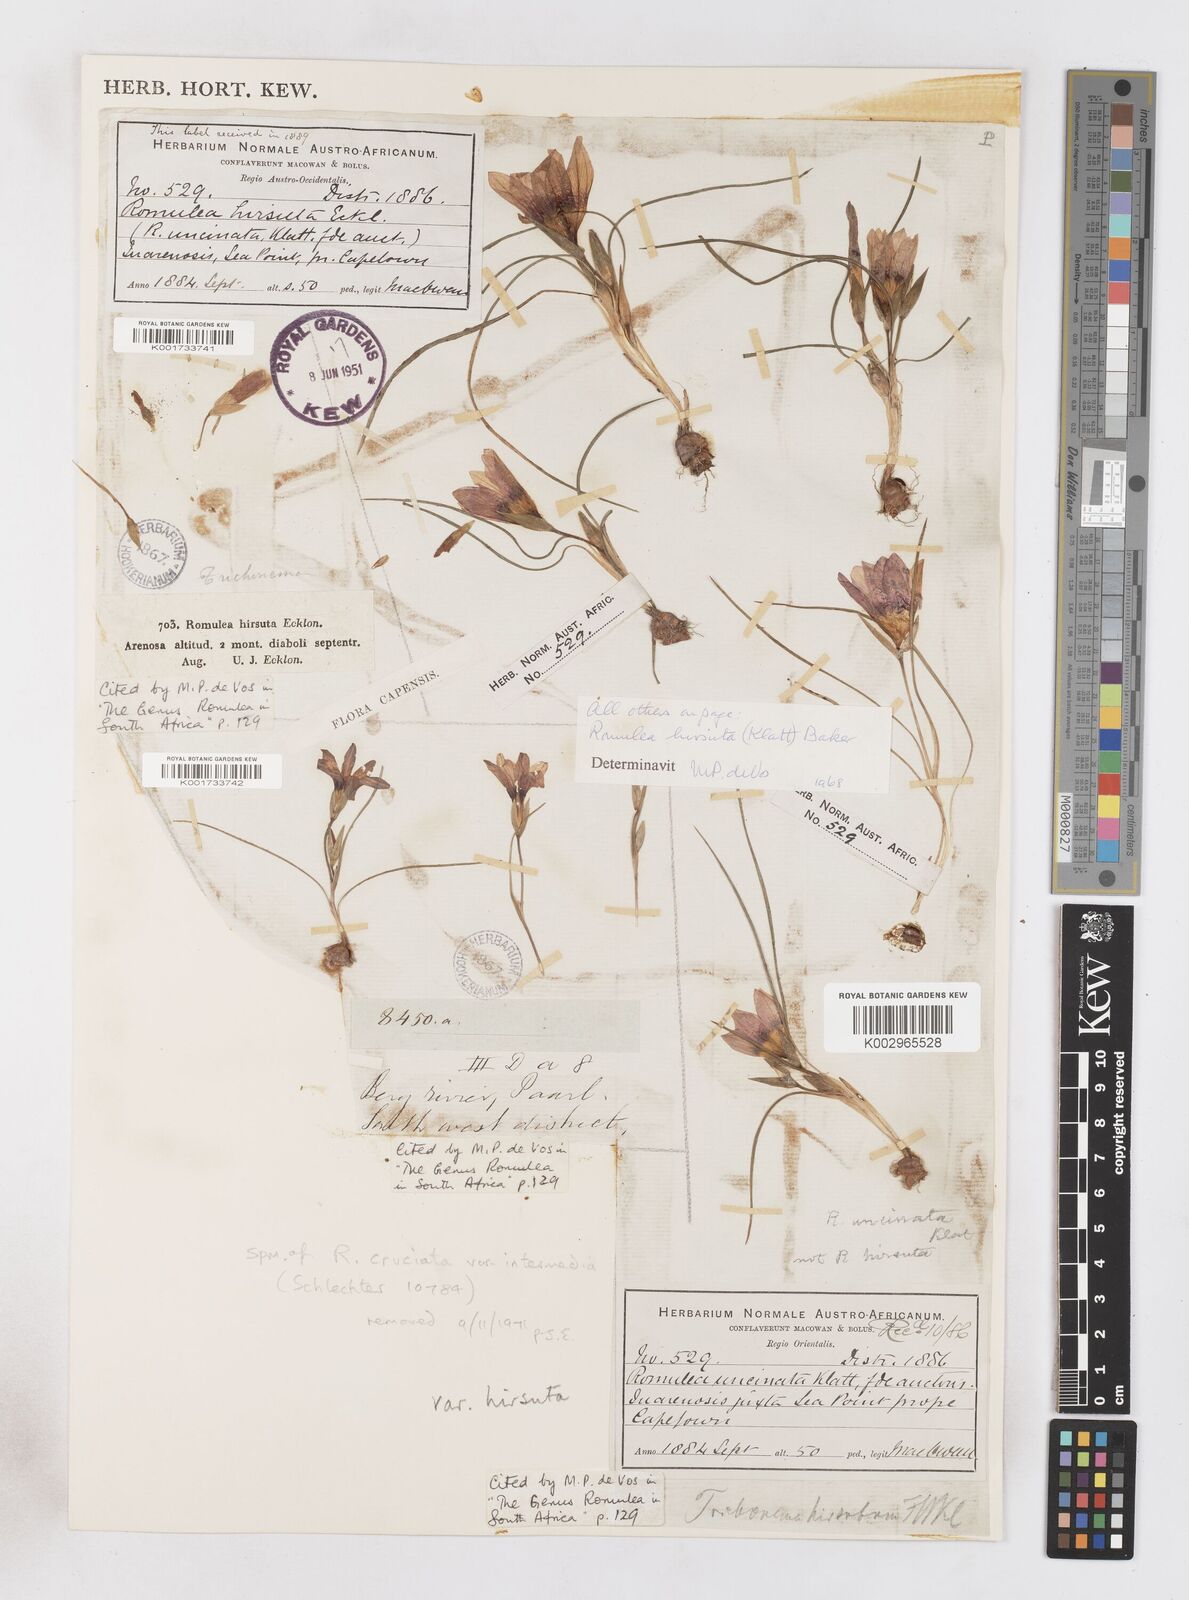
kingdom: Plantae
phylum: Tracheophyta
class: Liliopsida
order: Asparagales
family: Iridaceae
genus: Romulea
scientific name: Romulea hirsuta
